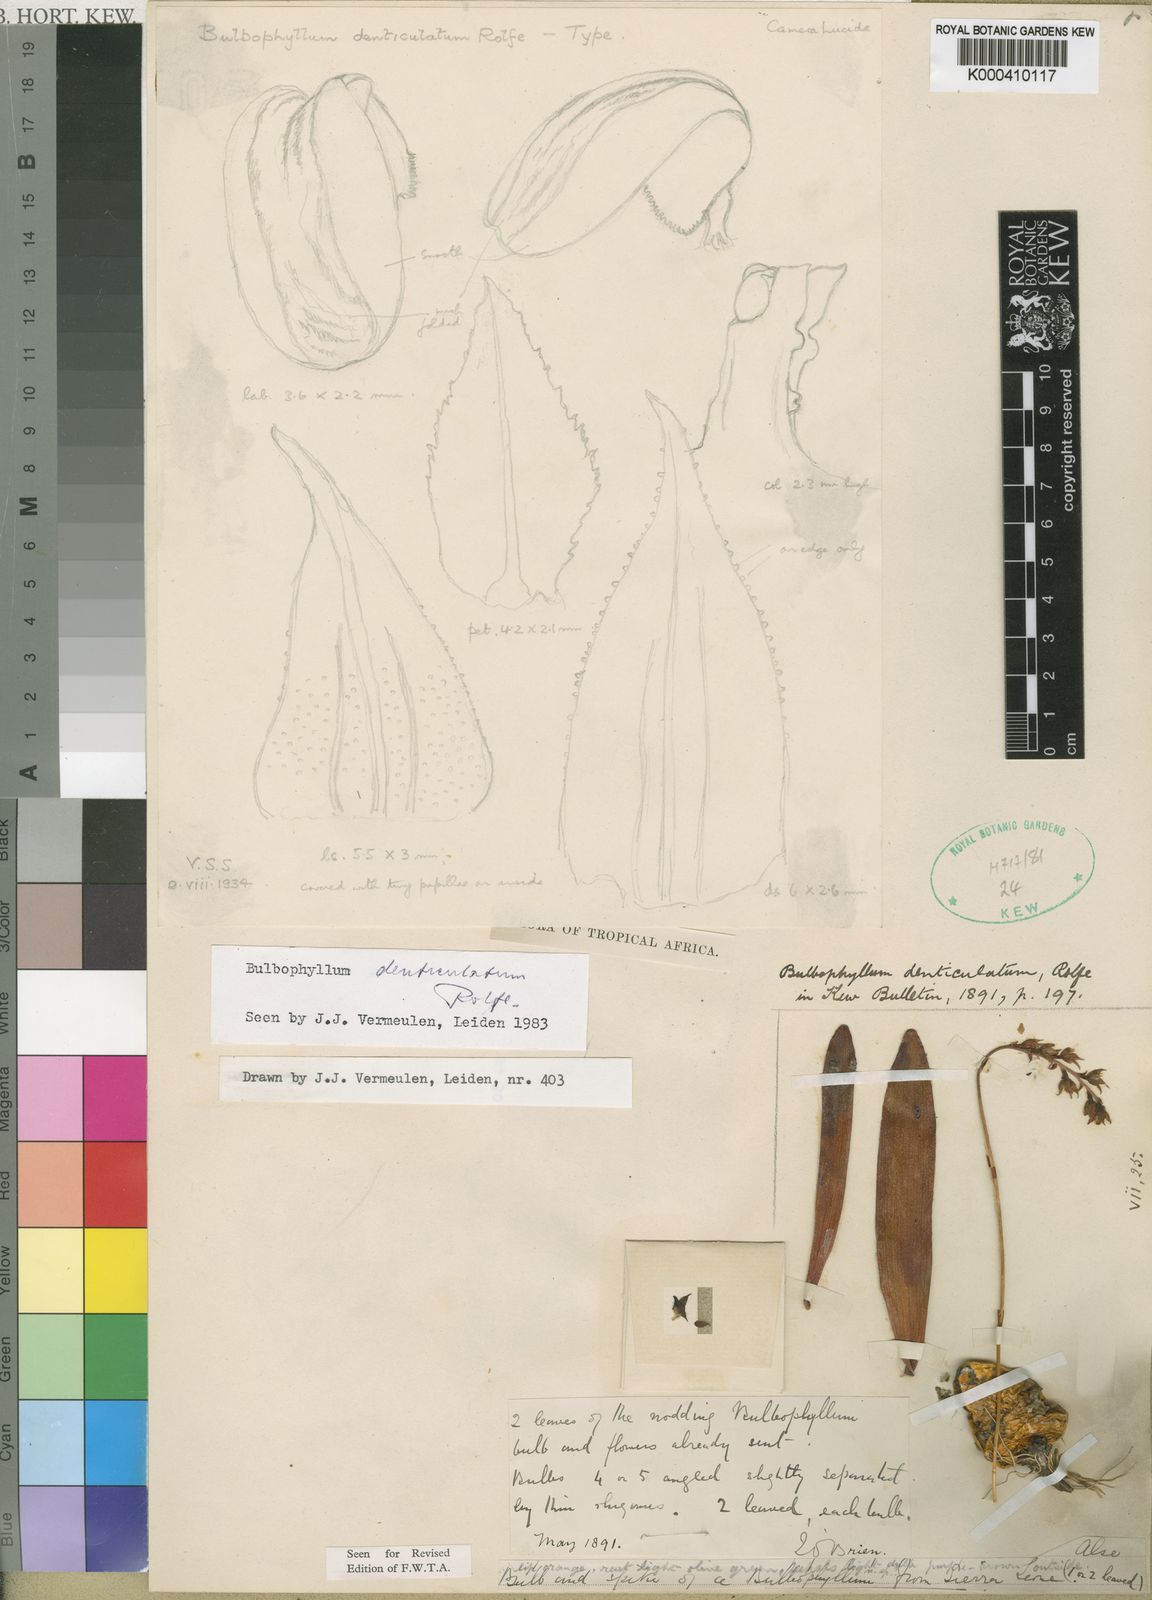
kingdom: Plantae
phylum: Tracheophyta
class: Liliopsida
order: Asparagales
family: Orchidaceae
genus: Bulbophyllum
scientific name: Bulbophyllum denticulatum
